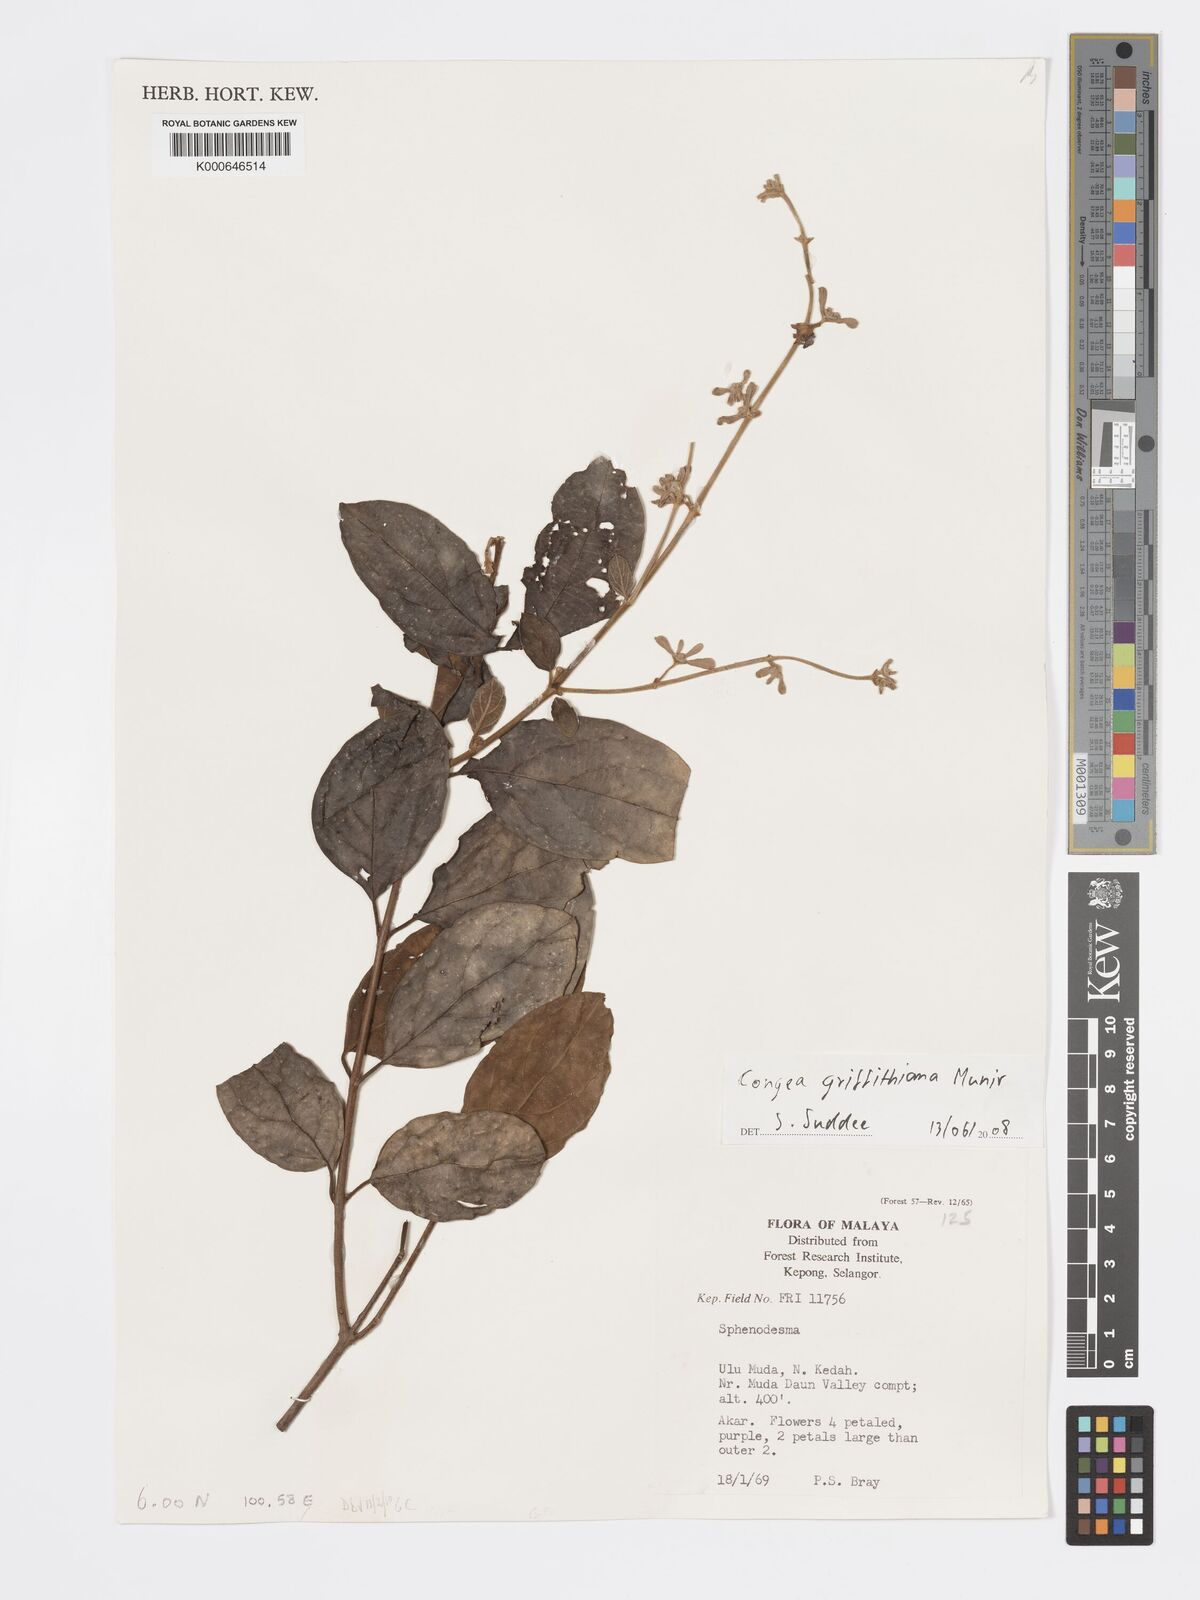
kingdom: Plantae
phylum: Tracheophyta
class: Magnoliopsida
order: Lamiales
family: Lamiaceae
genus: Congea
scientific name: Congea griffithiana
